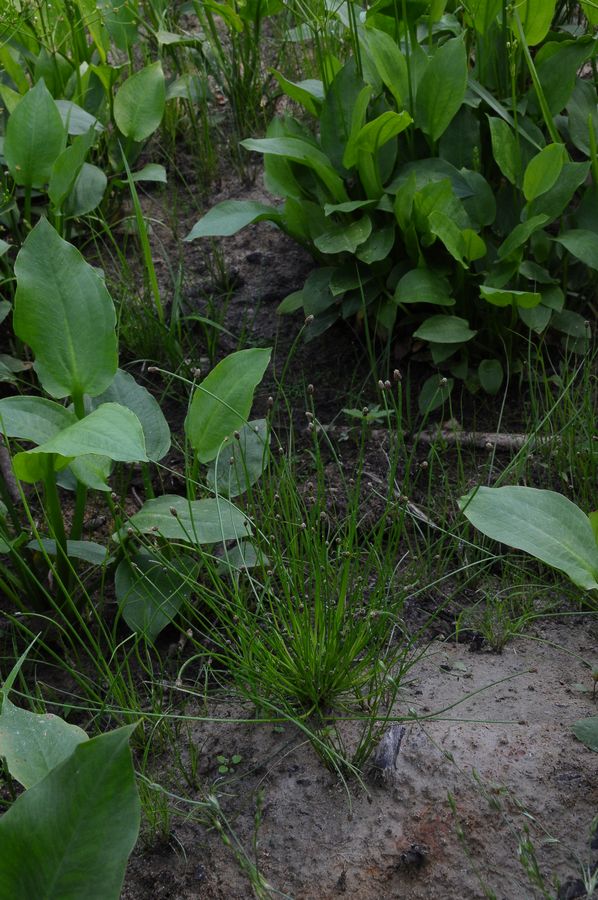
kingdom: Plantae
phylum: Tracheophyta
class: Liliopsida
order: Poales
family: Cyperaceae
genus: Eleocharis
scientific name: Eleocharis ovata
